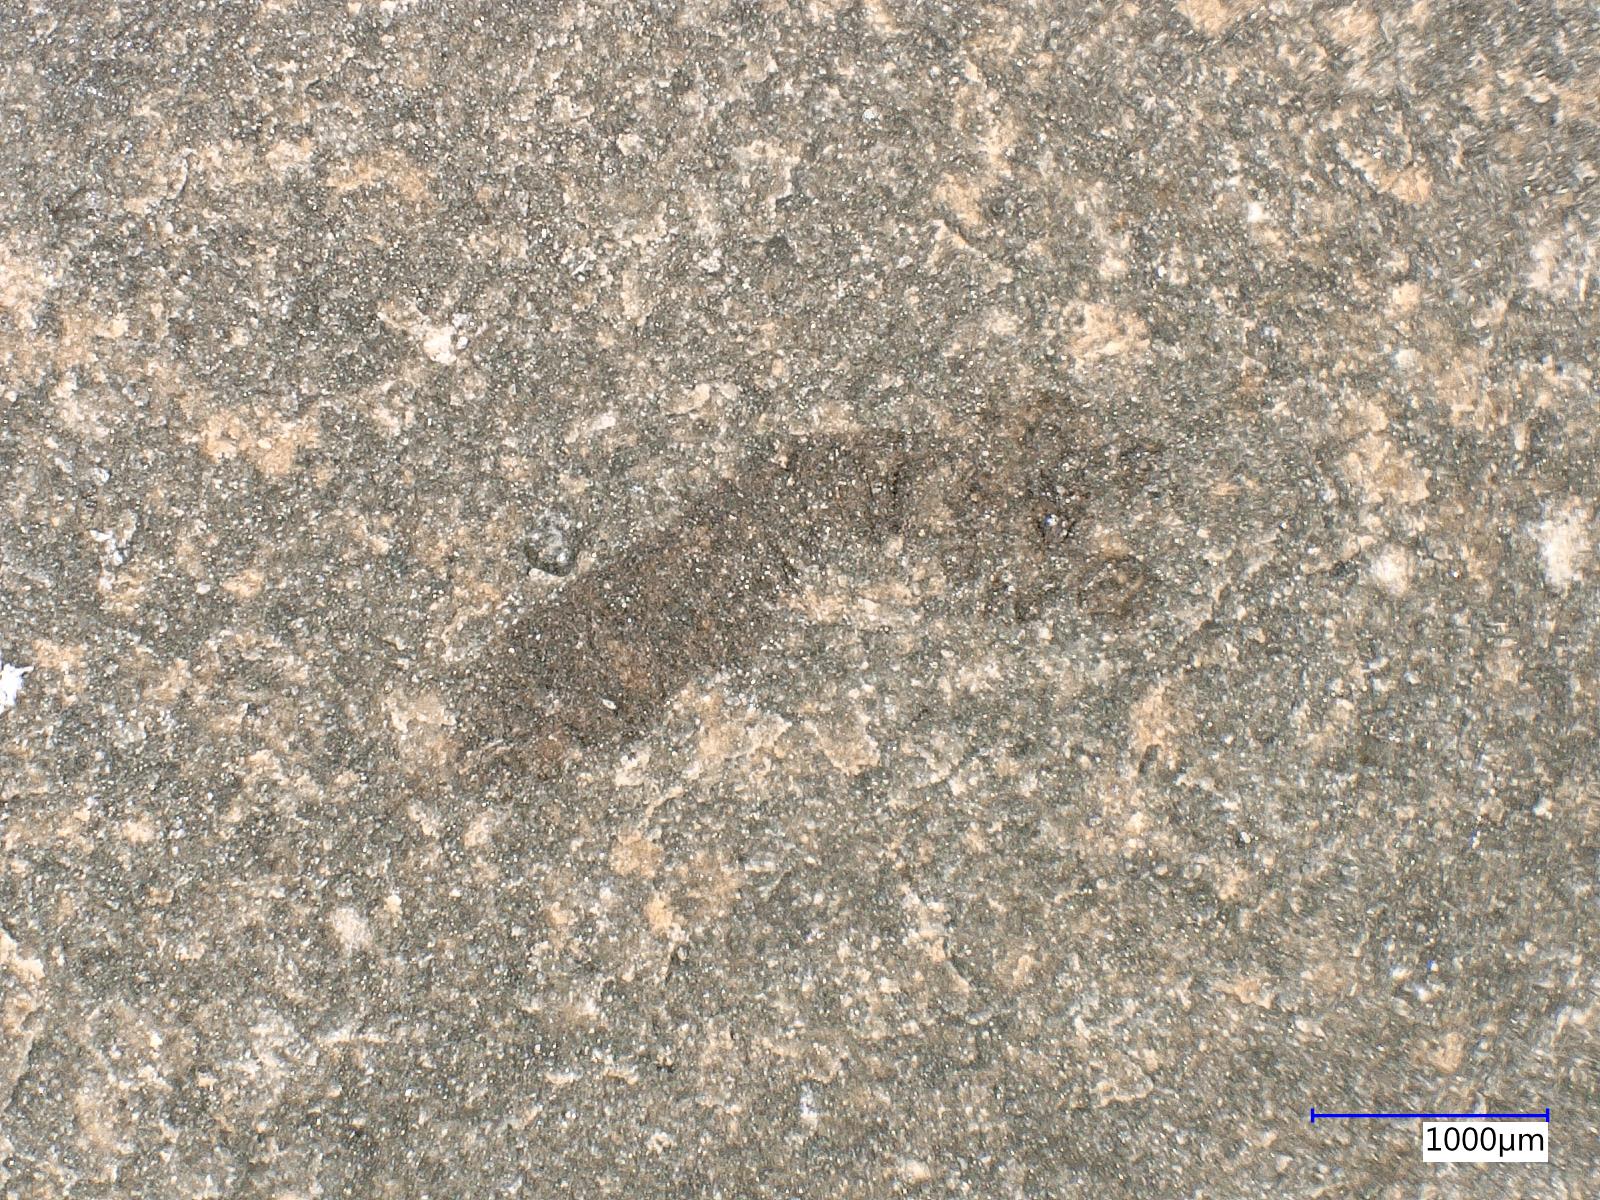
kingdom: Animalia
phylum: Arthropoda
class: Insecta
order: Diptera
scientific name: Diptera
